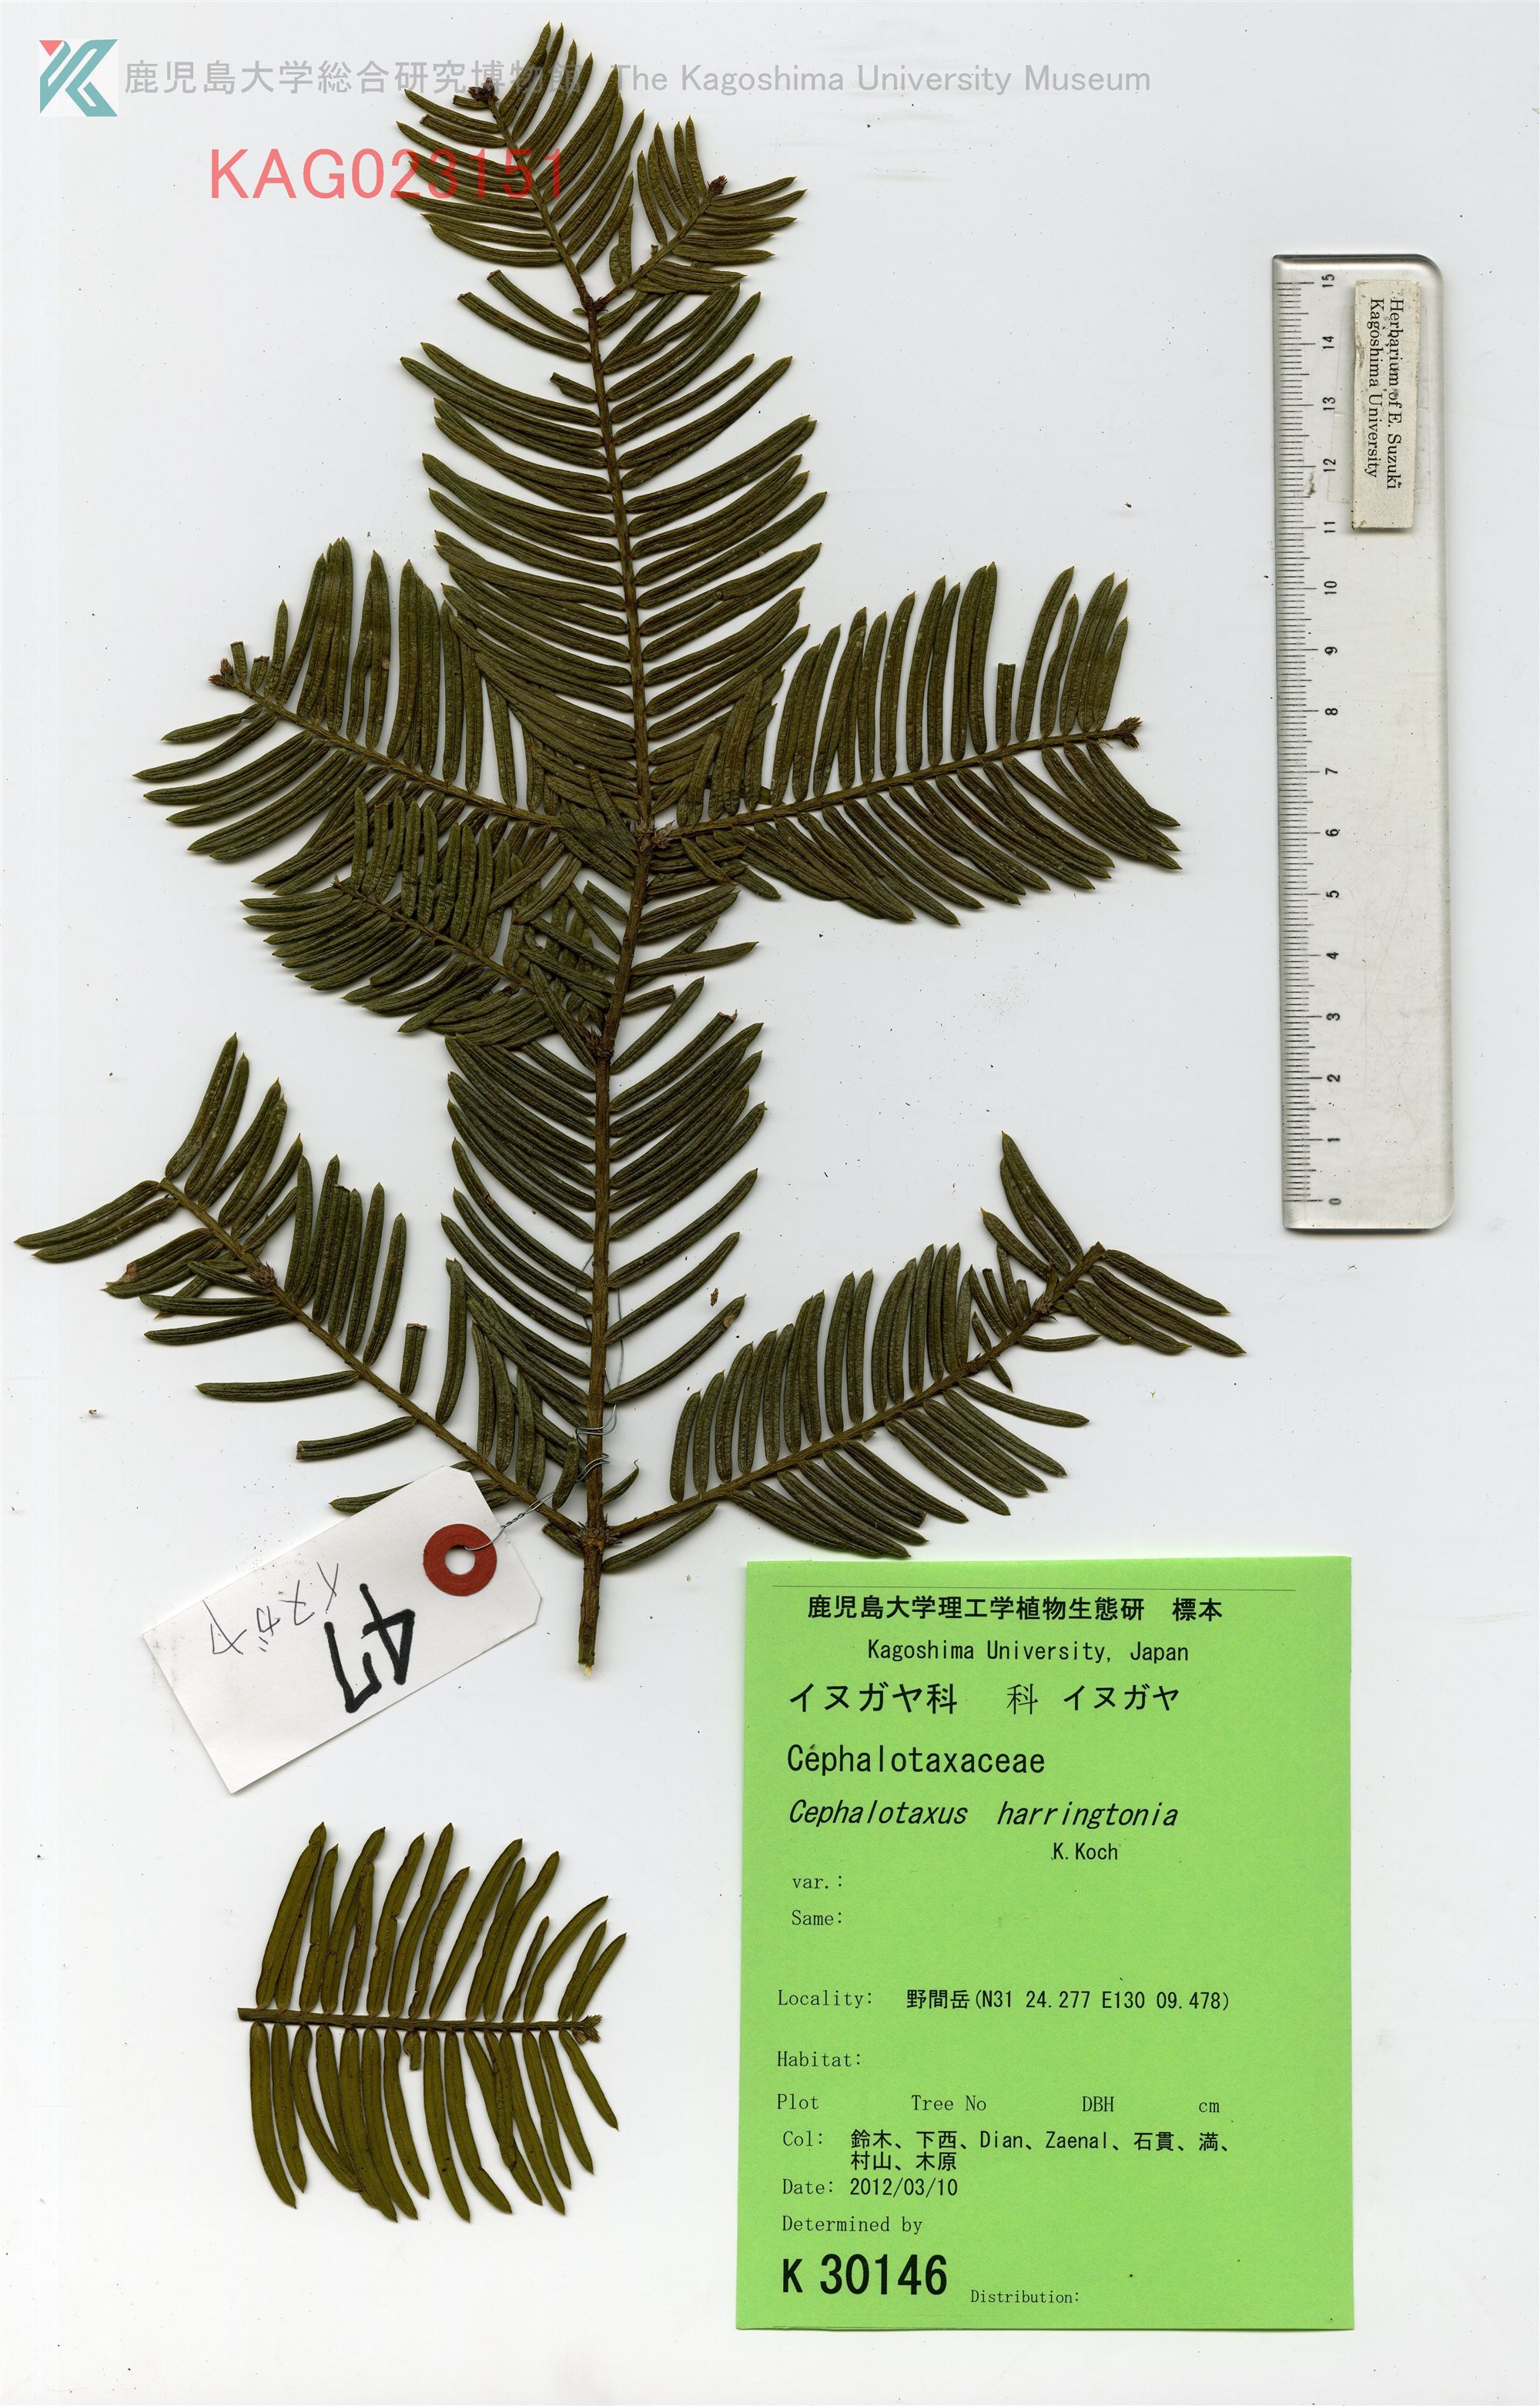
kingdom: Plantae
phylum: Tracheophyta
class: Pinopsida
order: Pinales
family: Cephalotaxaceae
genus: Cephalotaxus
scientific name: Cephalotaxus harringtonia
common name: イヌガヤ
